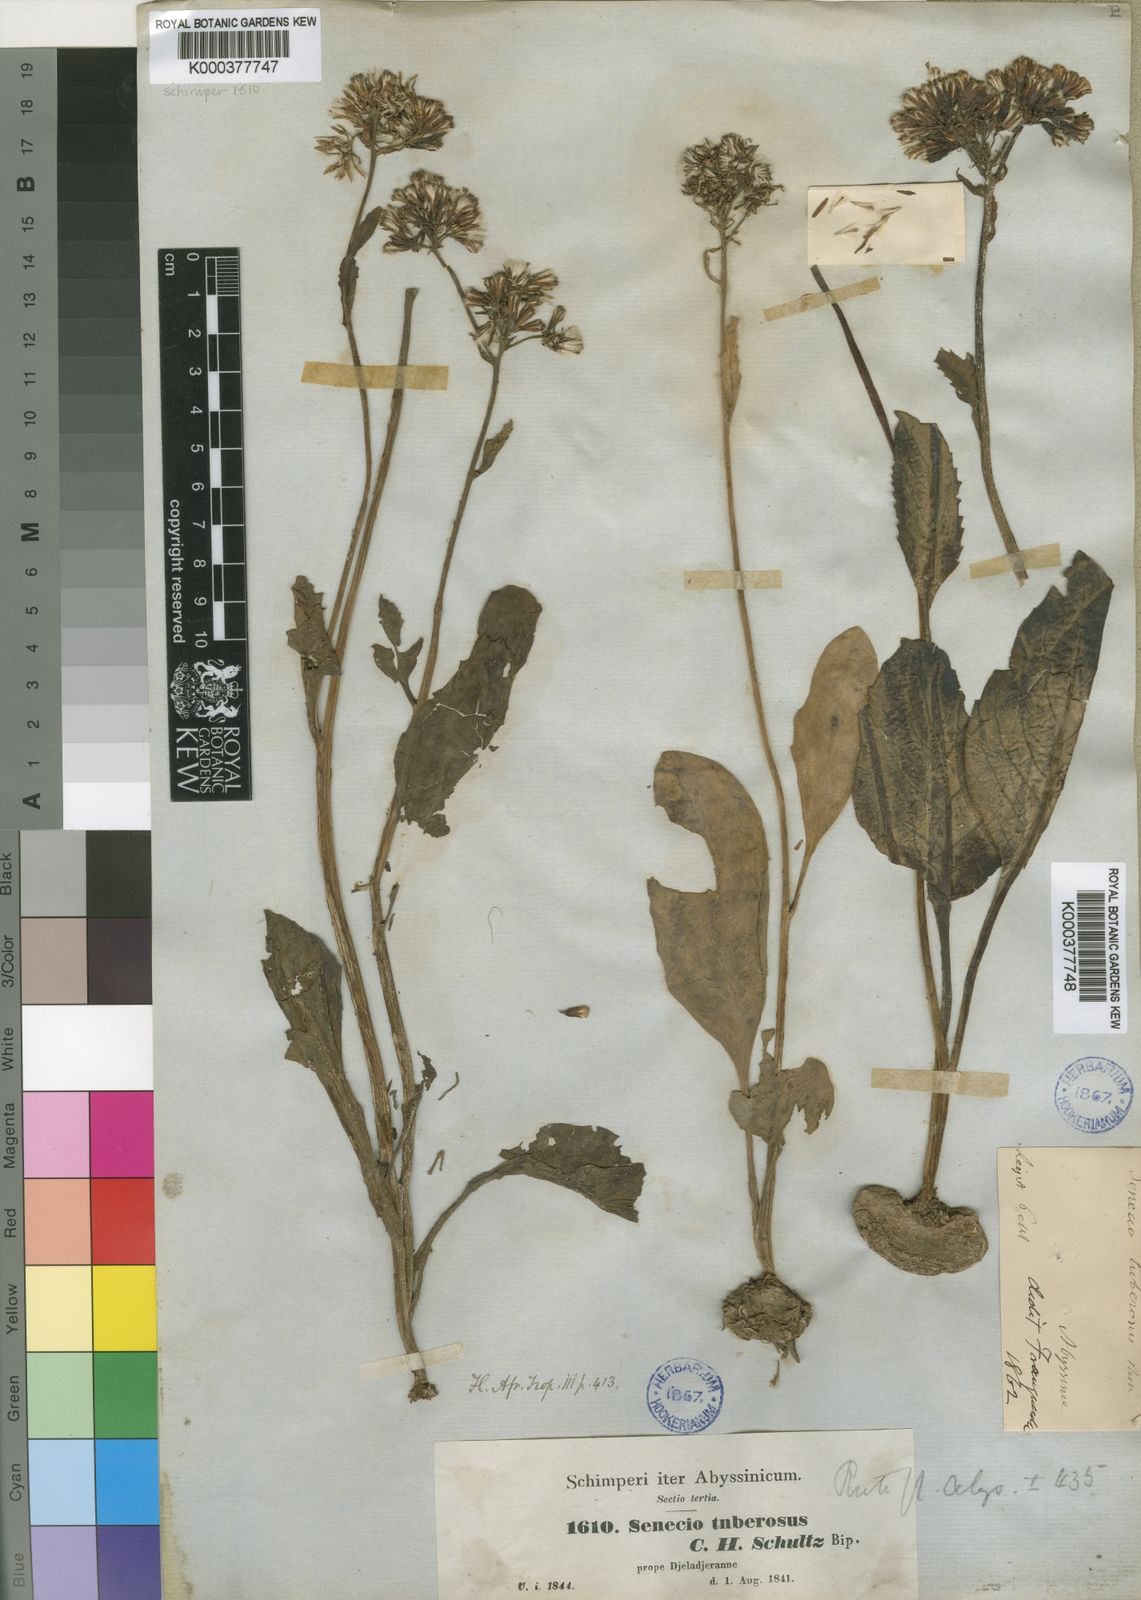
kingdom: Plantae
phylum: Tracheophyta
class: Magnoliopsida
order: Asterales
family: Asteraceae
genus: Solanecio
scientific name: Solanecio nandensis
